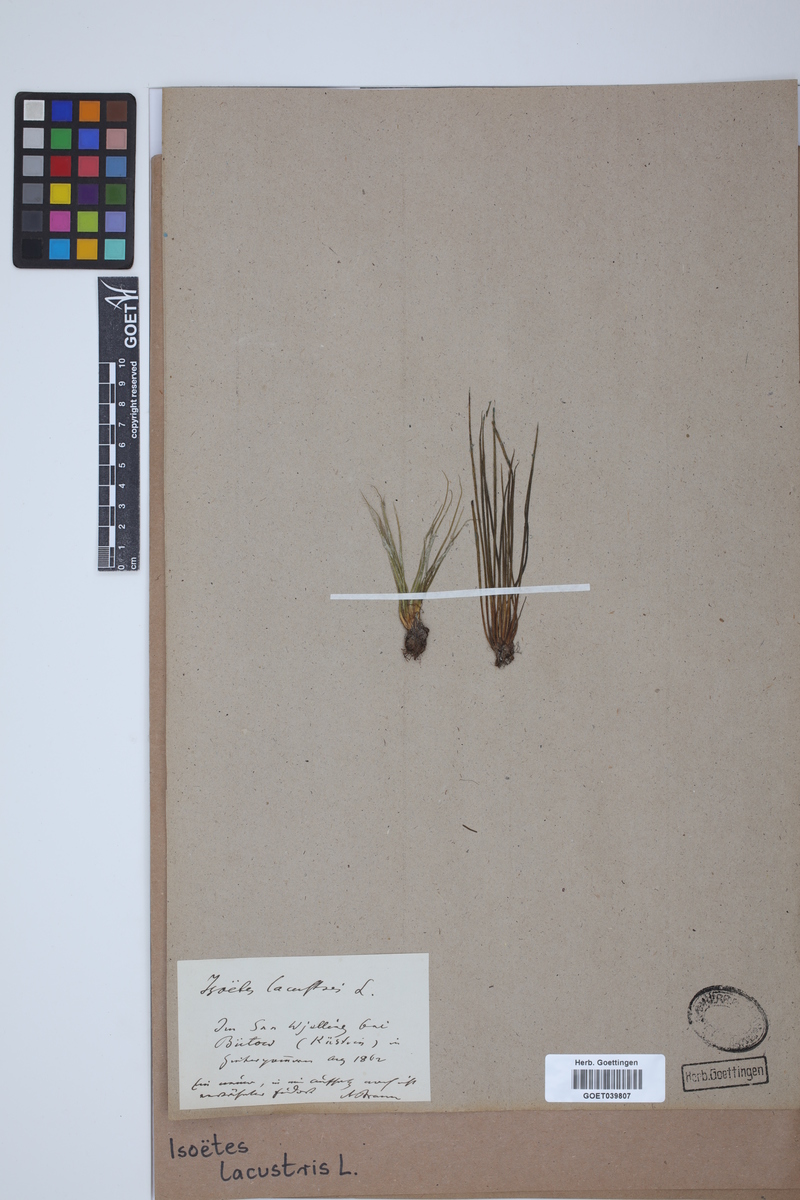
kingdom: Plantae
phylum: Tracheophyta
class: Lycopodiopsida
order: Isoetales
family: Isoetaceae
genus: Isoetes
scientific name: Isoetes lacustris
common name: Common quillwort
